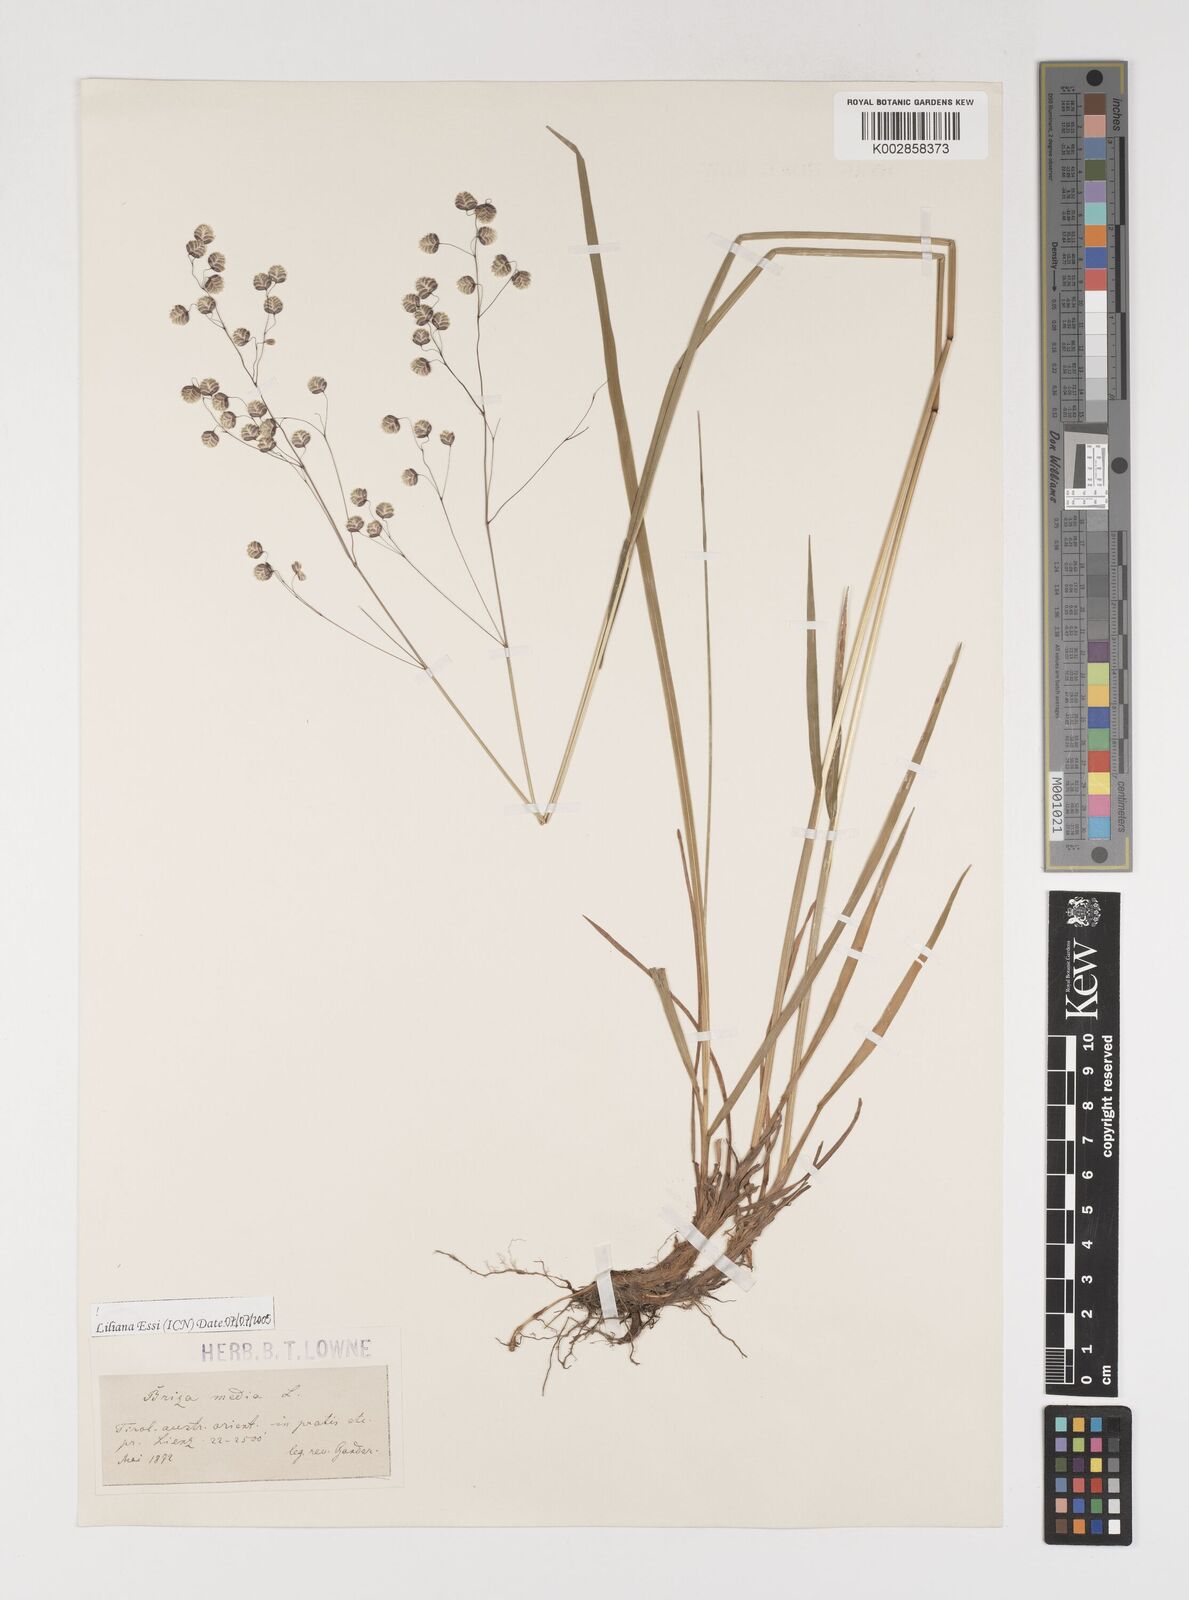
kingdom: Plantae
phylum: Tracheophyta
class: Liliopsida
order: Poales
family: Poaceae
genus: Briza
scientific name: Briza media
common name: Quaking grass
